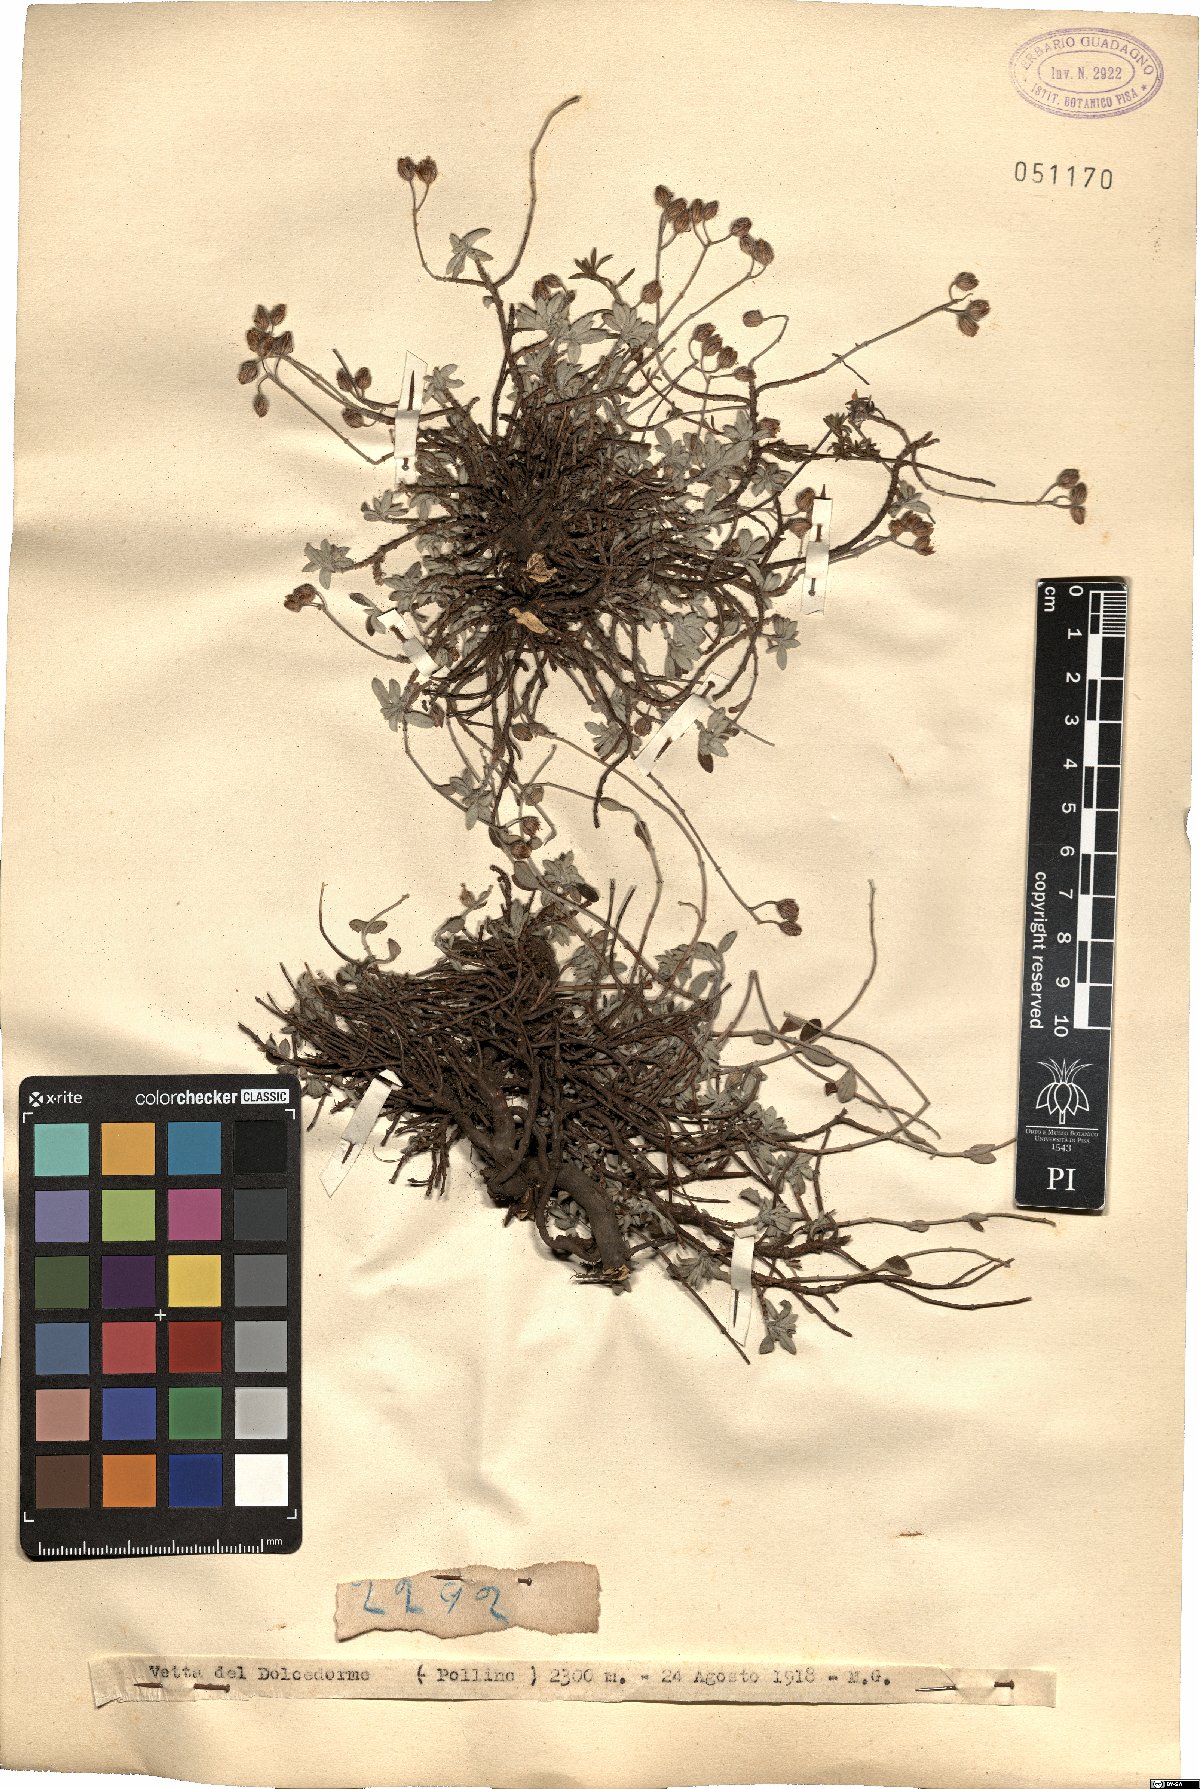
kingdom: Plantae
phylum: Tracheophyta
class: Magnoliopsida
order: Malvales
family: Cistaceae
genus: Helianthemum
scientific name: Helianthemum
